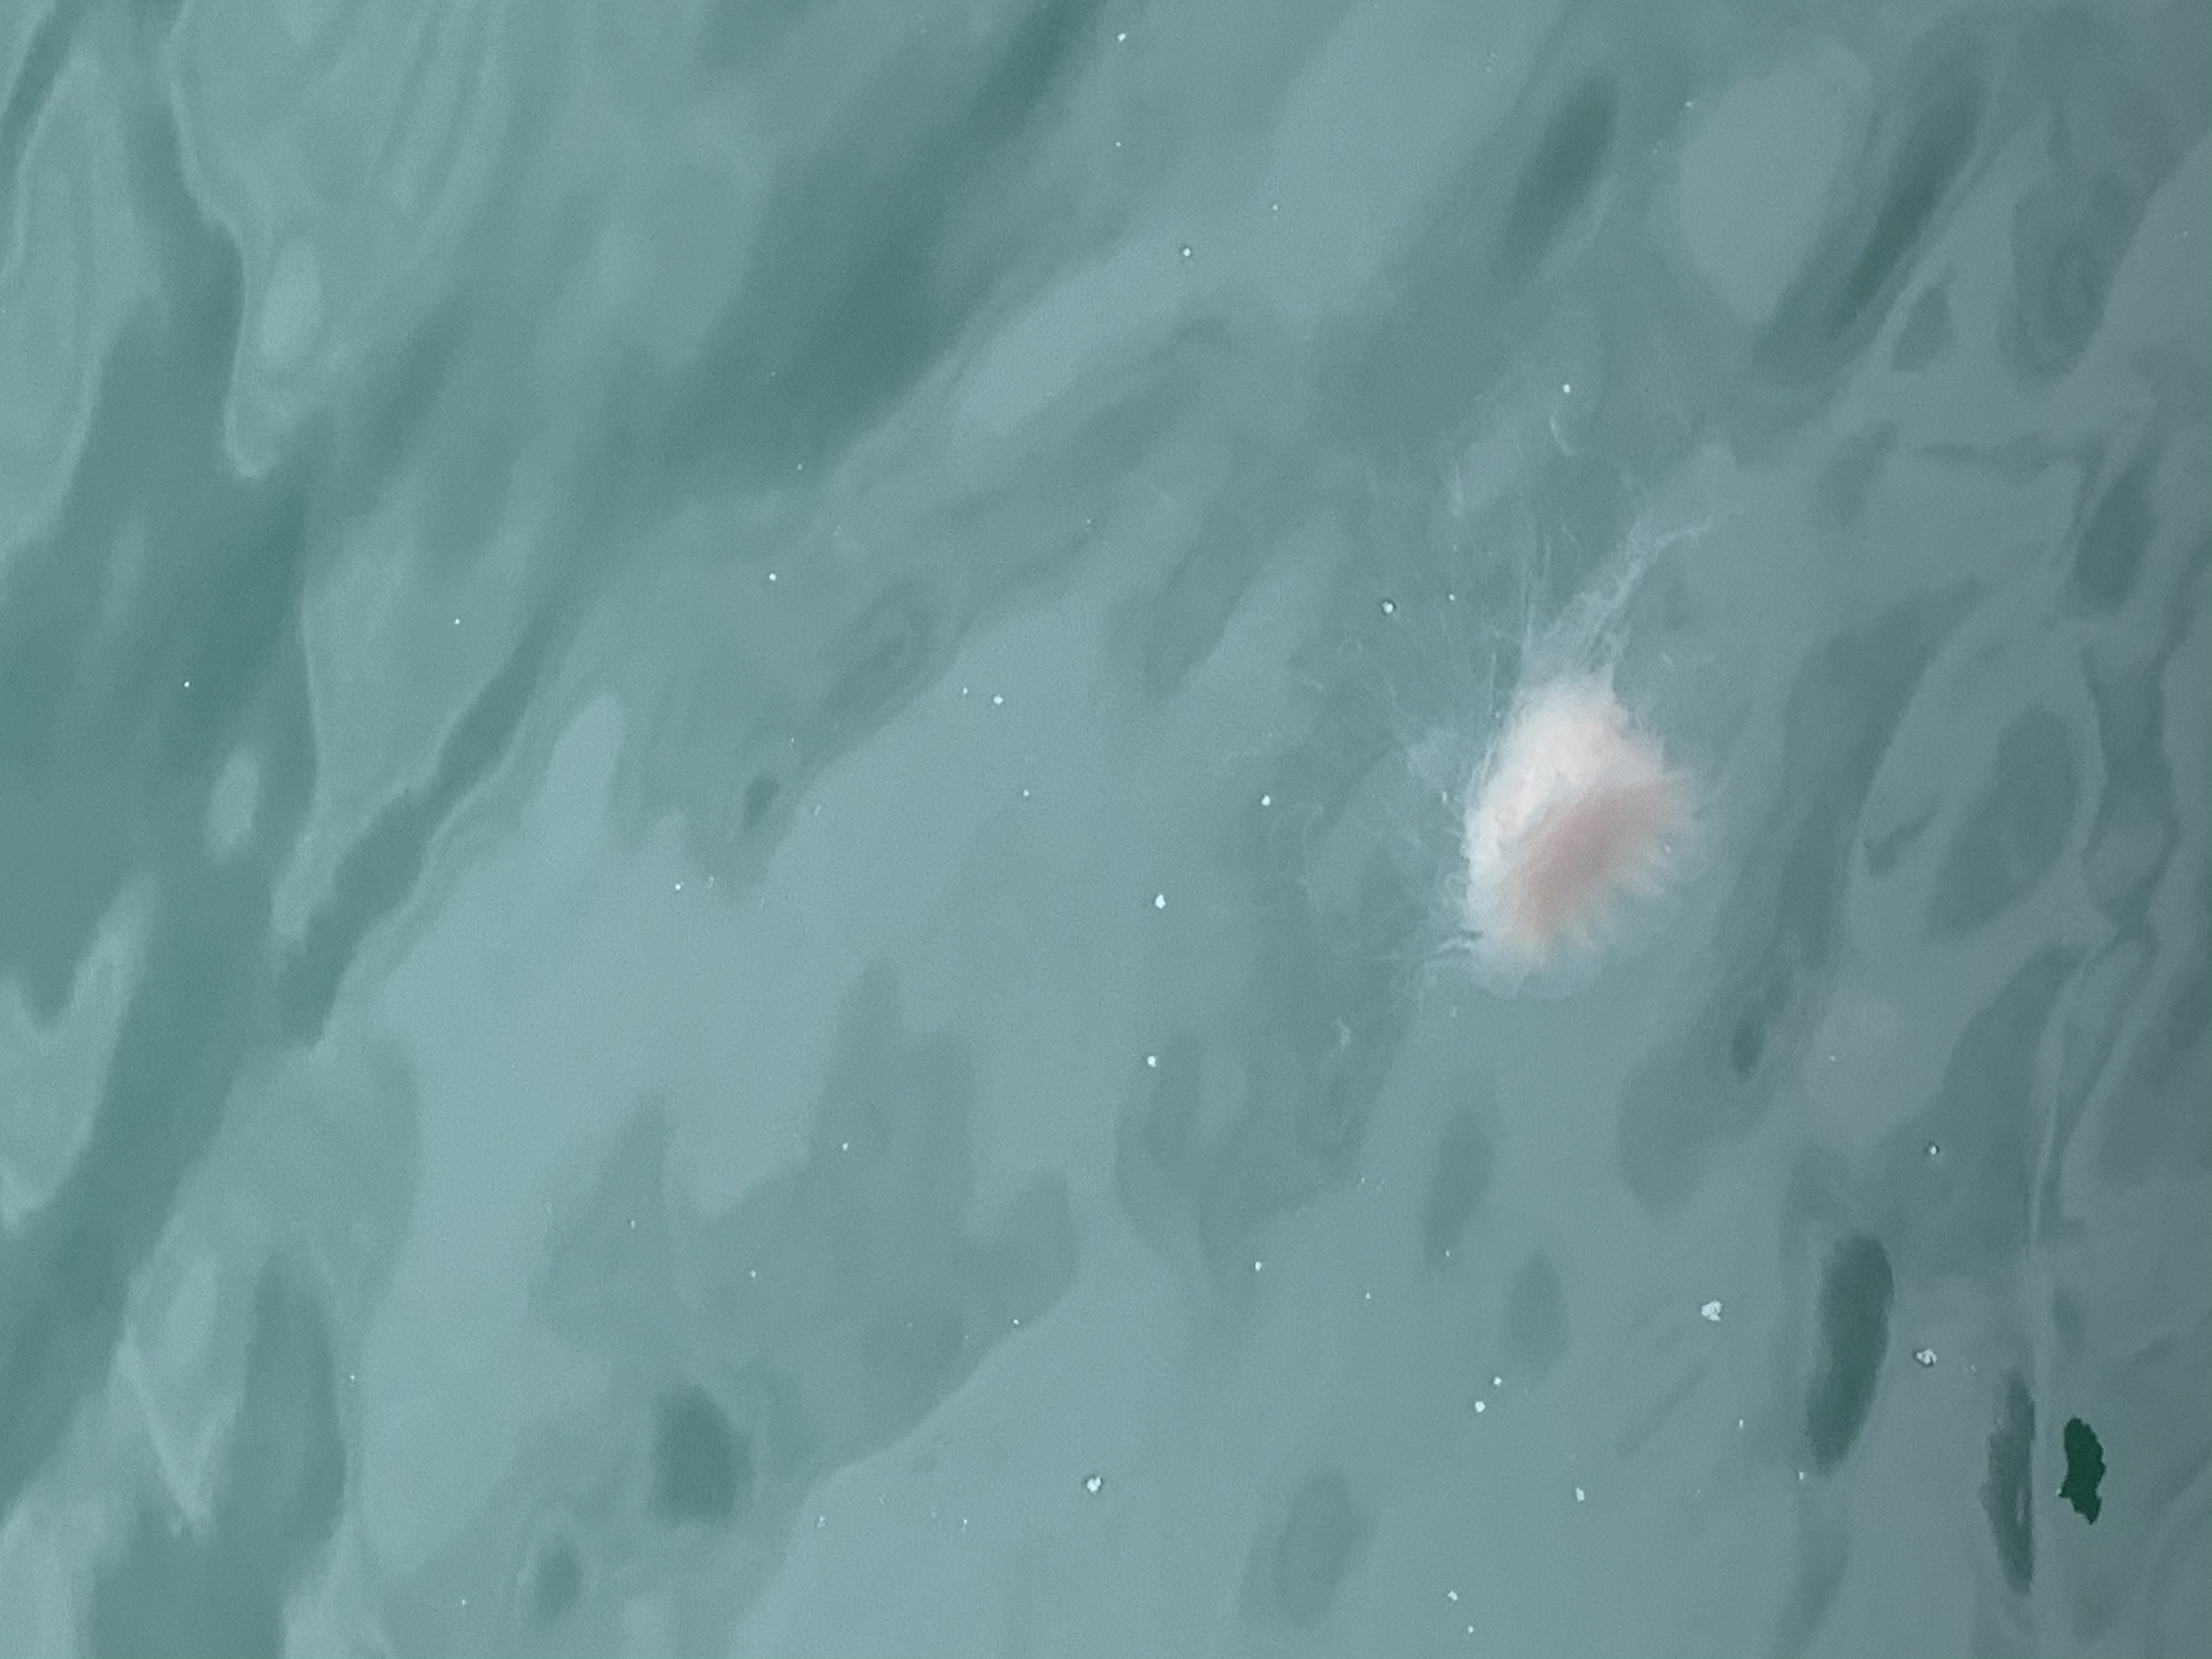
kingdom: Animalia
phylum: Cnidaria
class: Scyphozoa
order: Semaeostomeae
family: Cyaneidae
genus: Cyanea
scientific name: Cyanea nozakii
